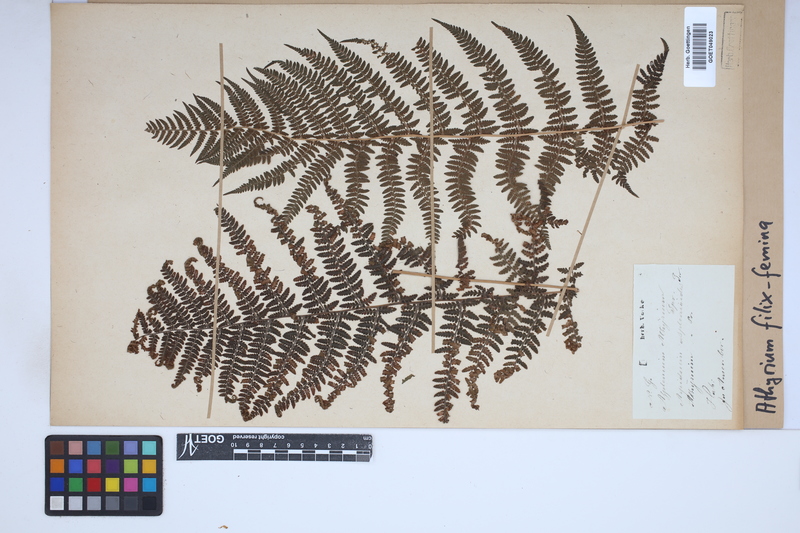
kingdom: Plantae
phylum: Tracheophyta
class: Polypodiopsida
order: Polypodiales
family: Athyriaceae
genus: Athyrium
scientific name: Athyrium filix-femina
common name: Lady fern
